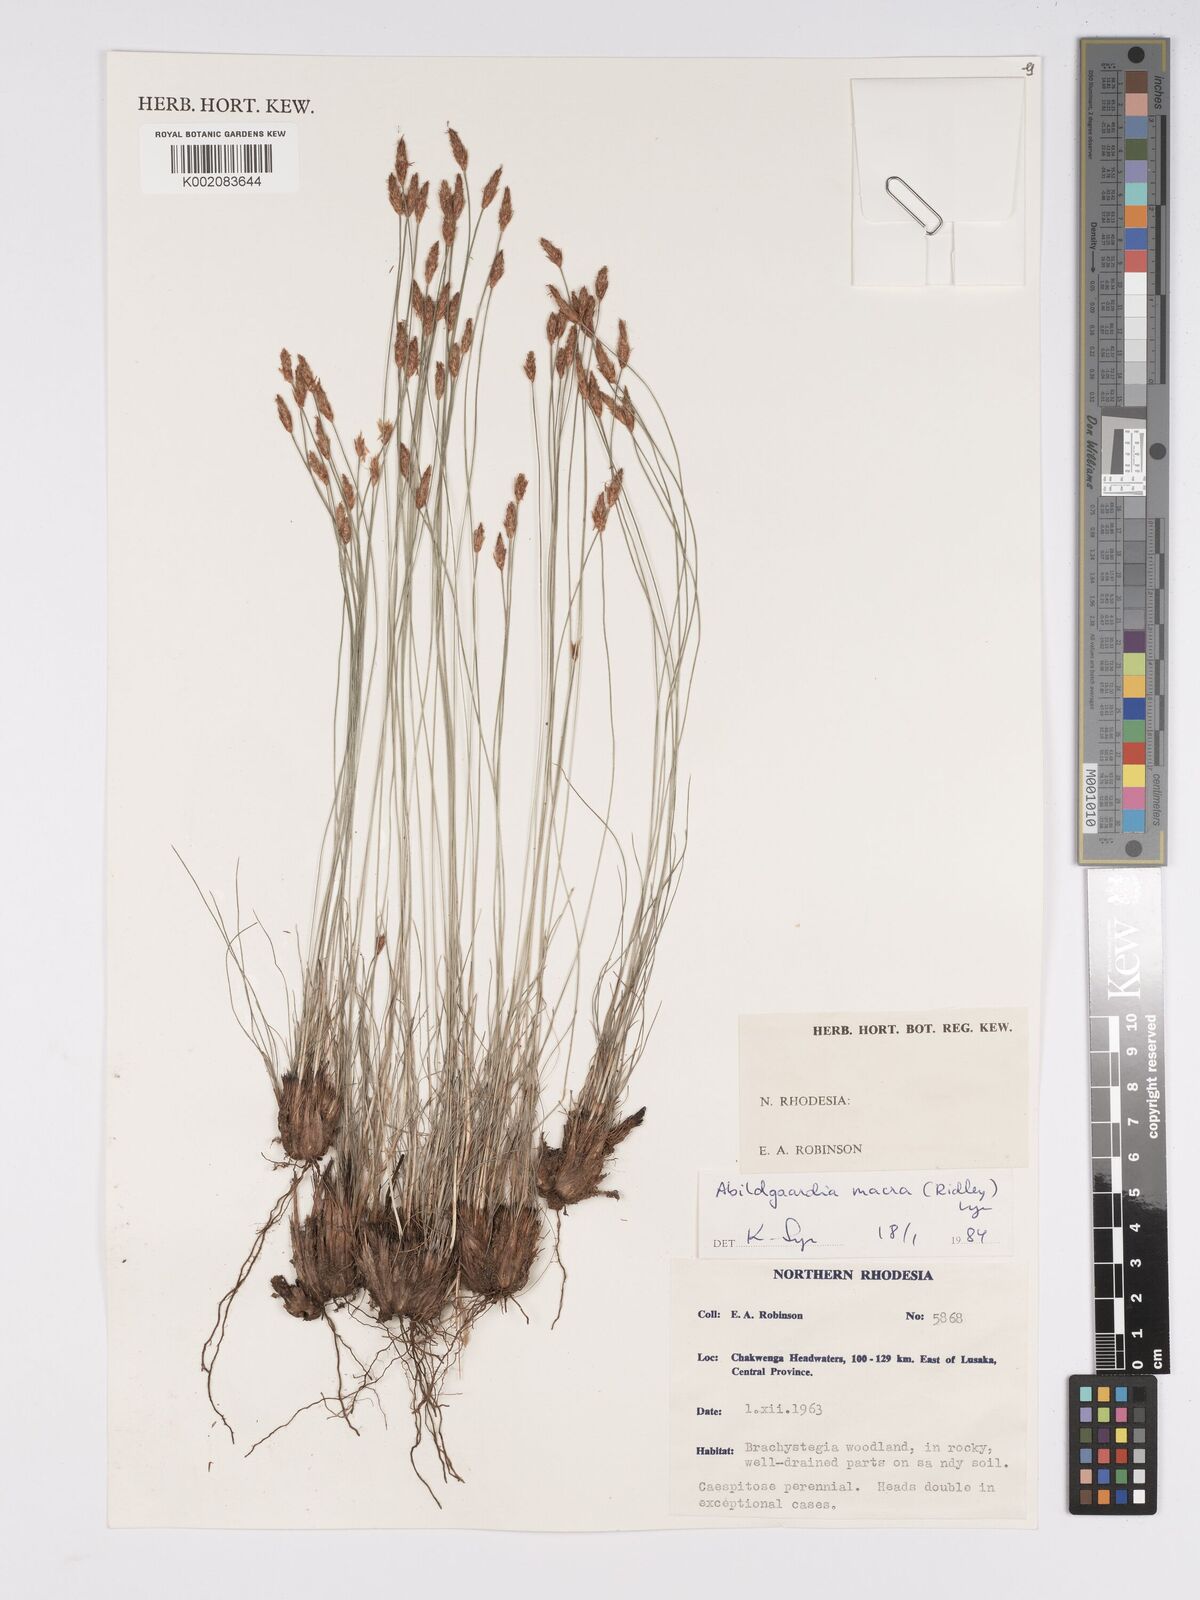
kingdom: Plantae
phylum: Tracheophyta
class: Liliopsida
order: Poales
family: Cyperaceae
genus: Bulbostylis
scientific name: Bulbostylis macra
